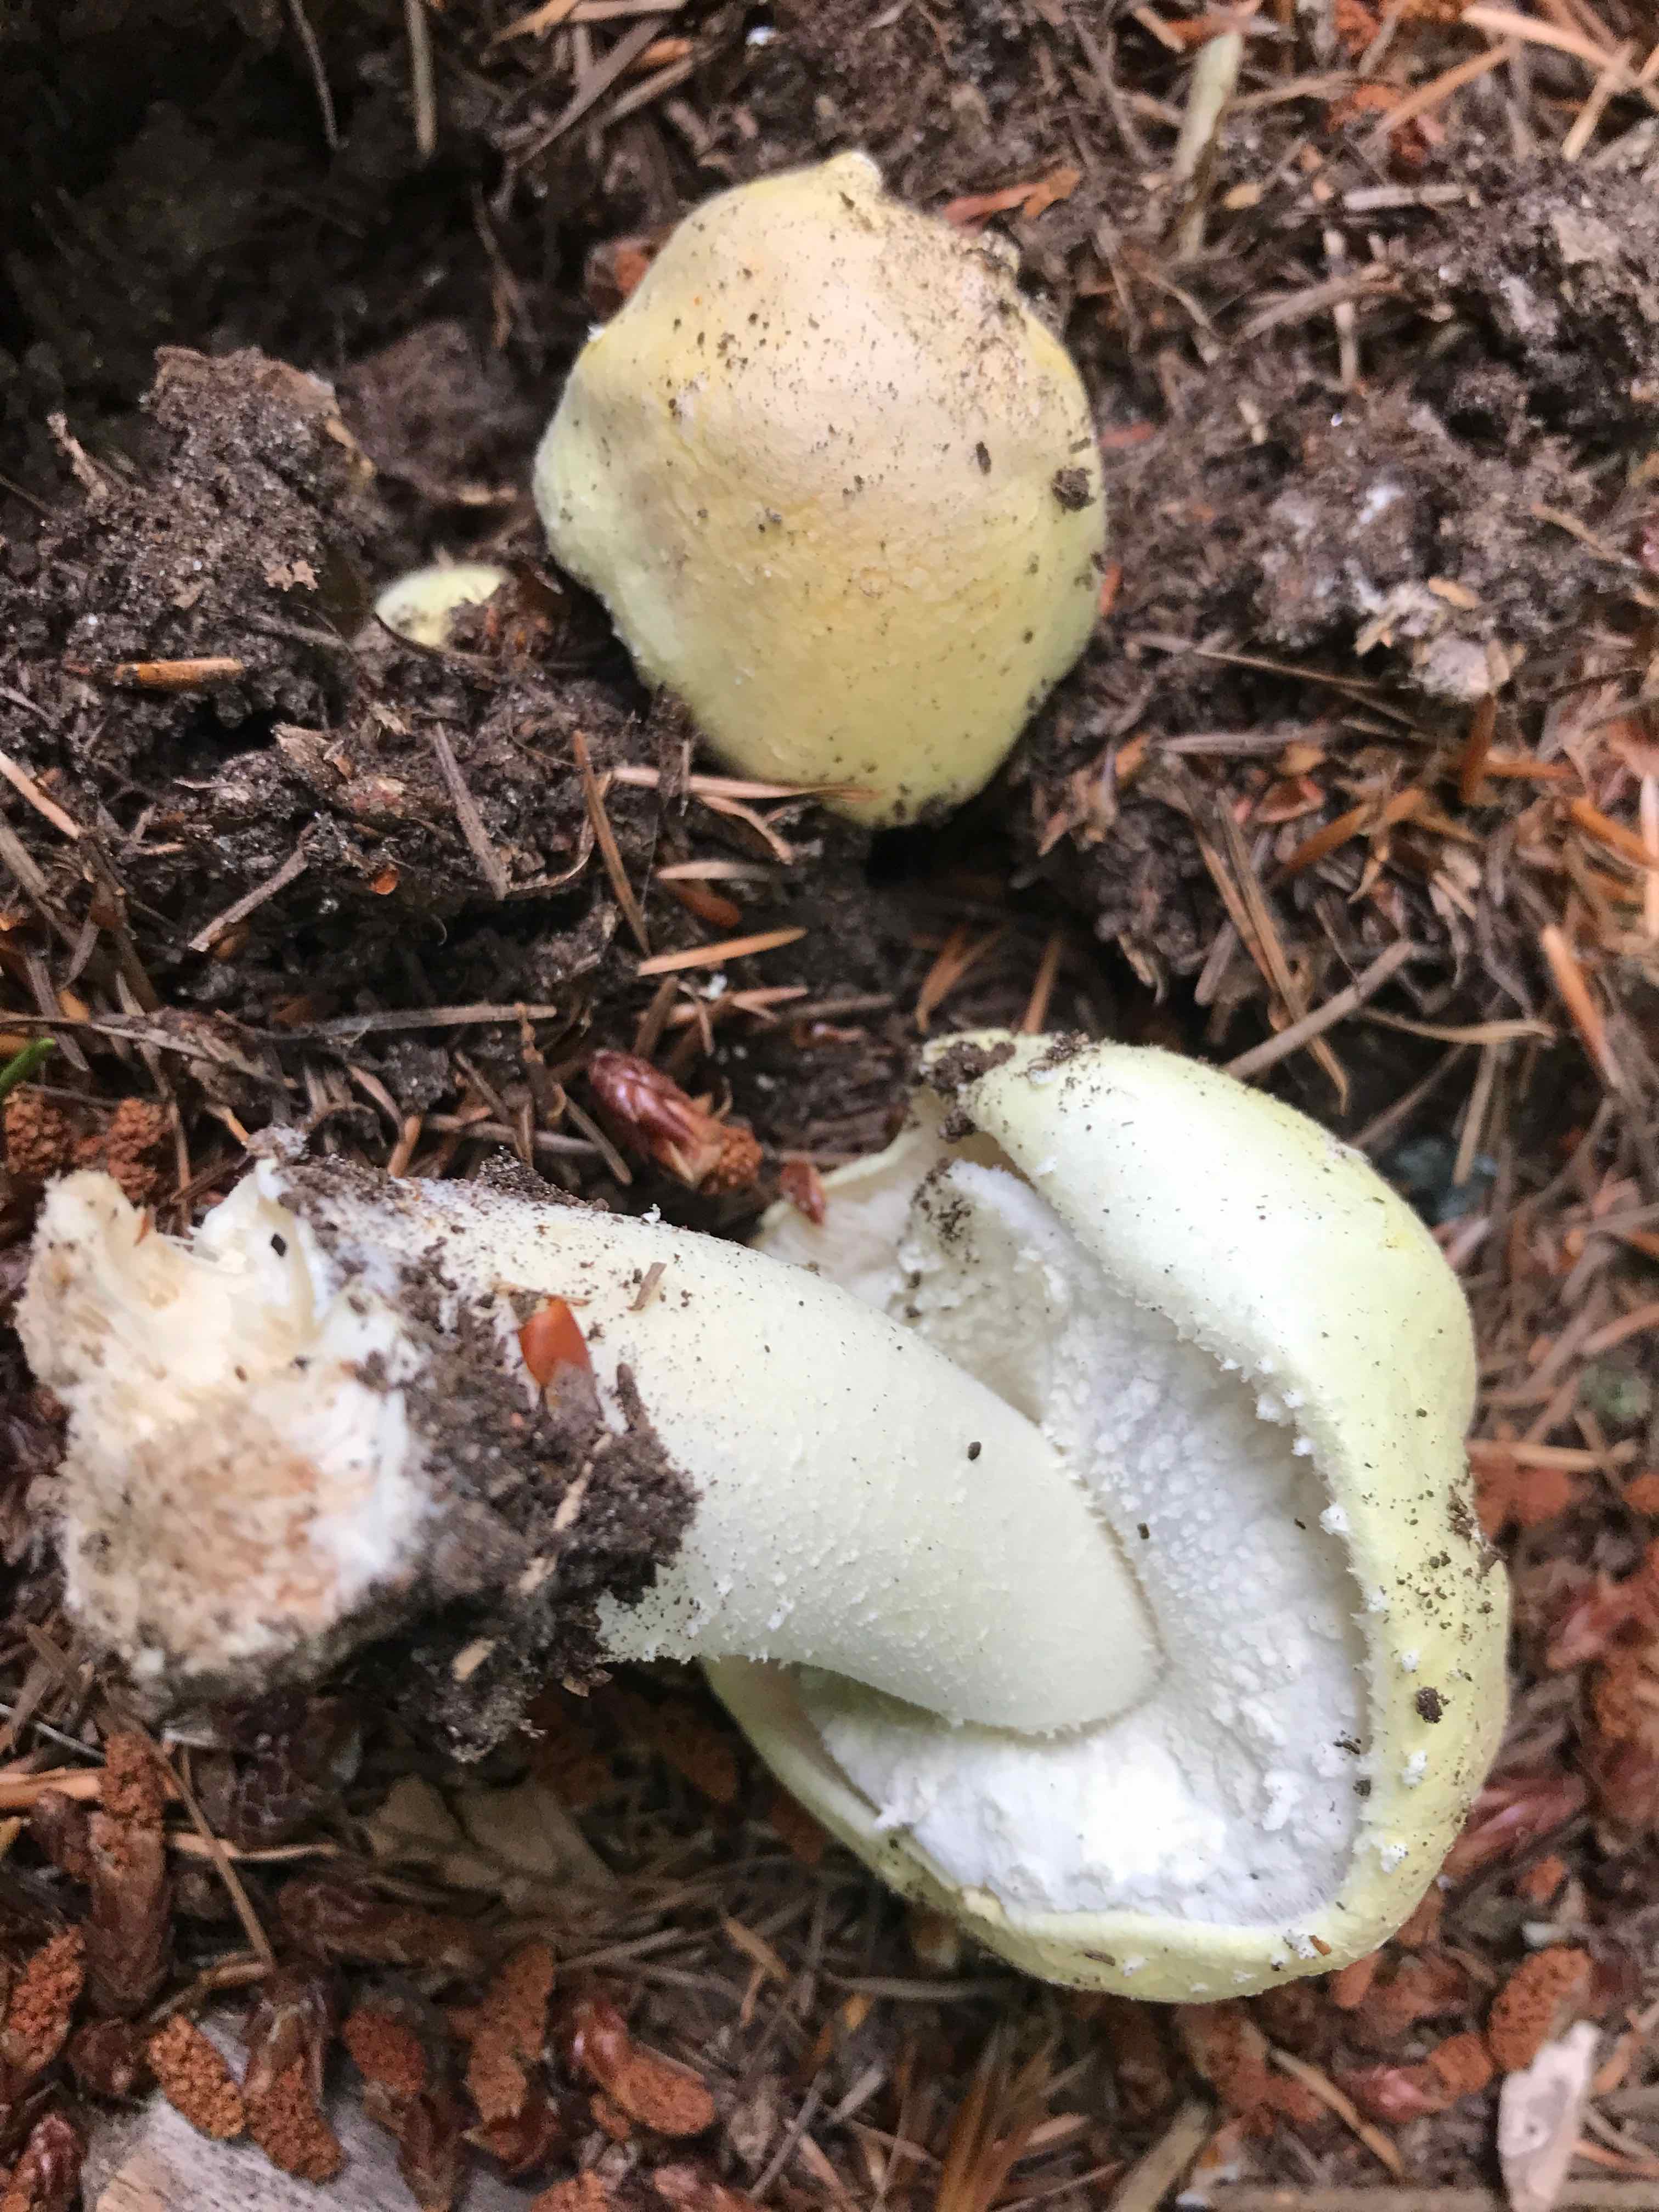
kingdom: Fungi
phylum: Basidiomycota
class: Agaricomycetes
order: Agaricales
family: Agaricaceae
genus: Agaricus
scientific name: Agaricus
